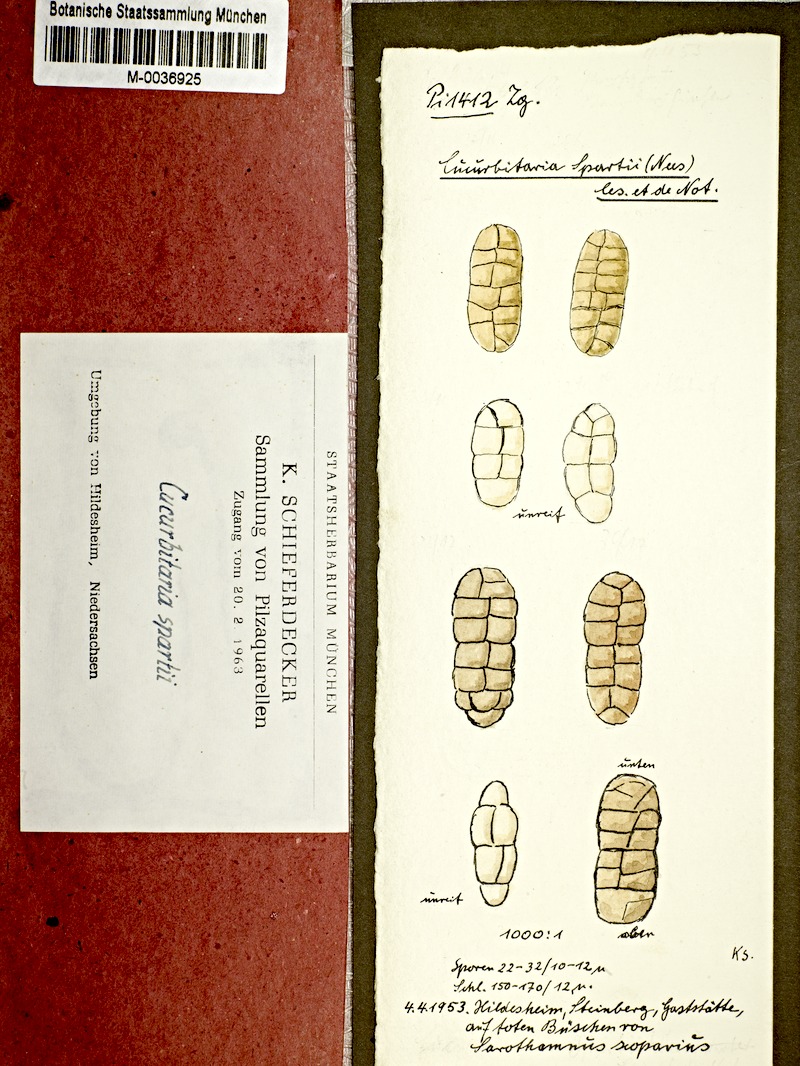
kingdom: Plantae
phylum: Tracheophyta
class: Magnoliopsida
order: Fabales
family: Fabaceae
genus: Cytisus
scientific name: Cytisus scoparius
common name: Scotch broom
